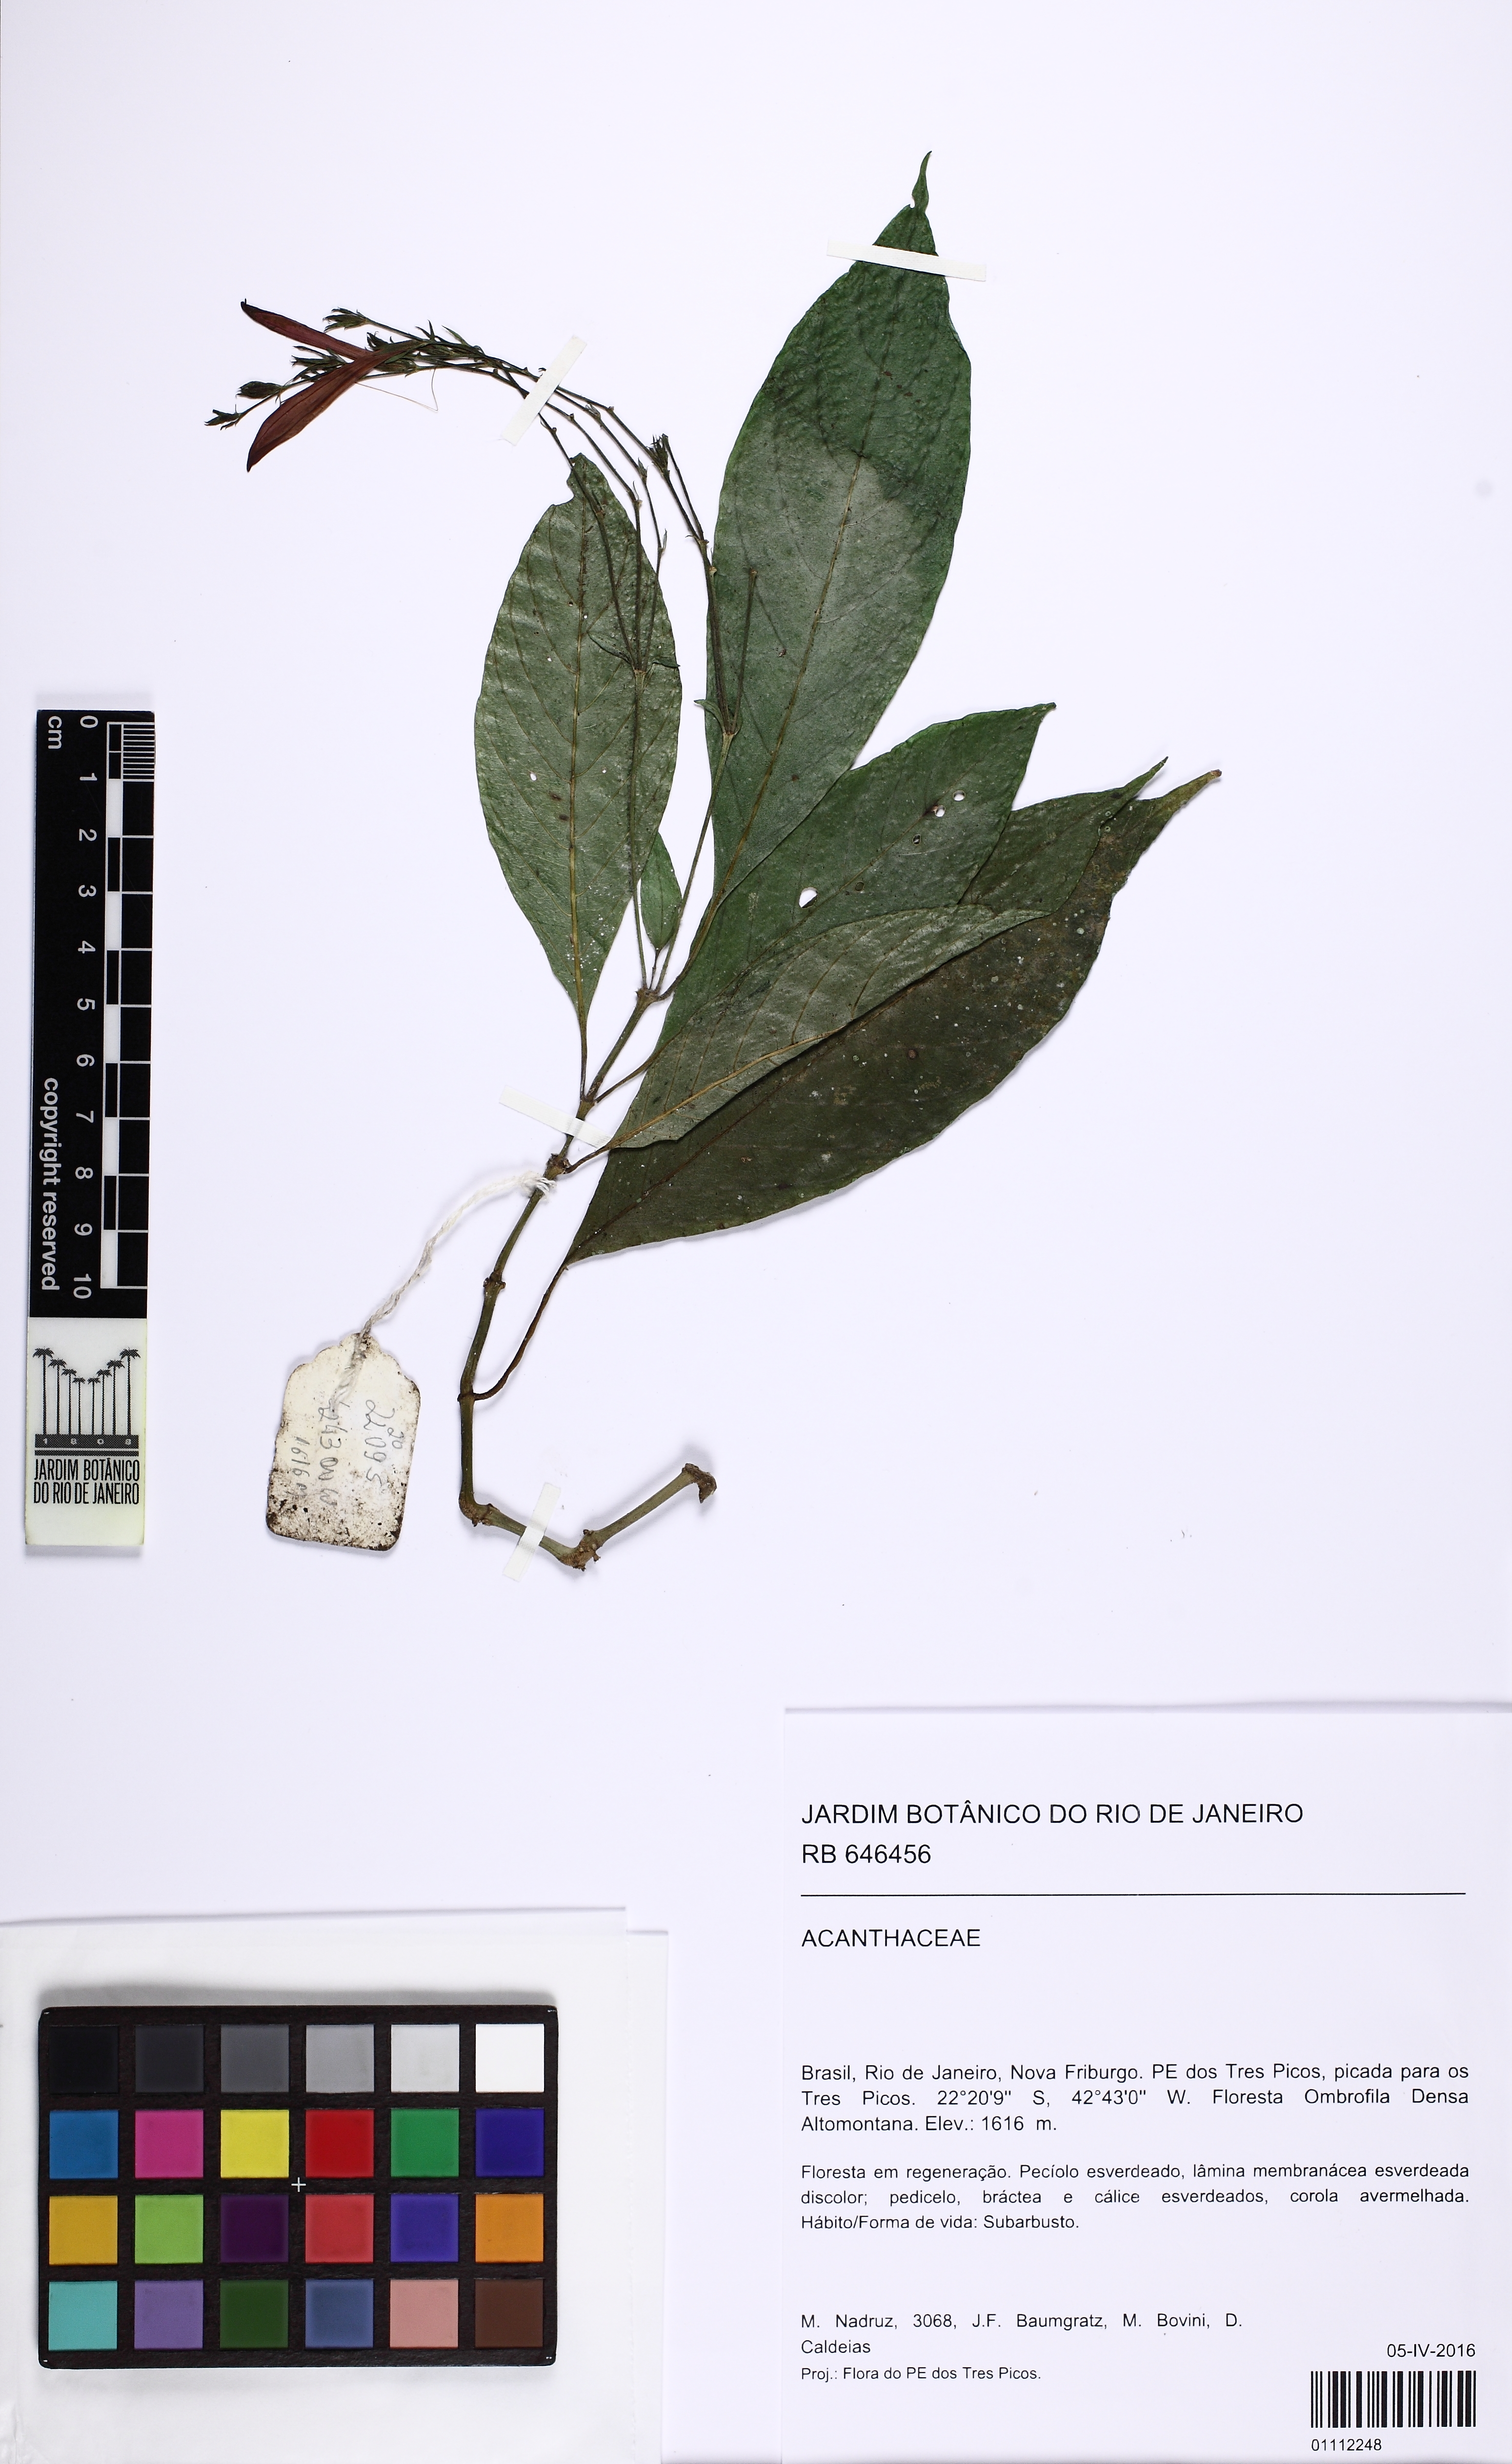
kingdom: Plantae
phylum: Tracheophyta
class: Magnoliopsida
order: Lamiales
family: Acanthaceae
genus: Justicia
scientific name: Justicia
